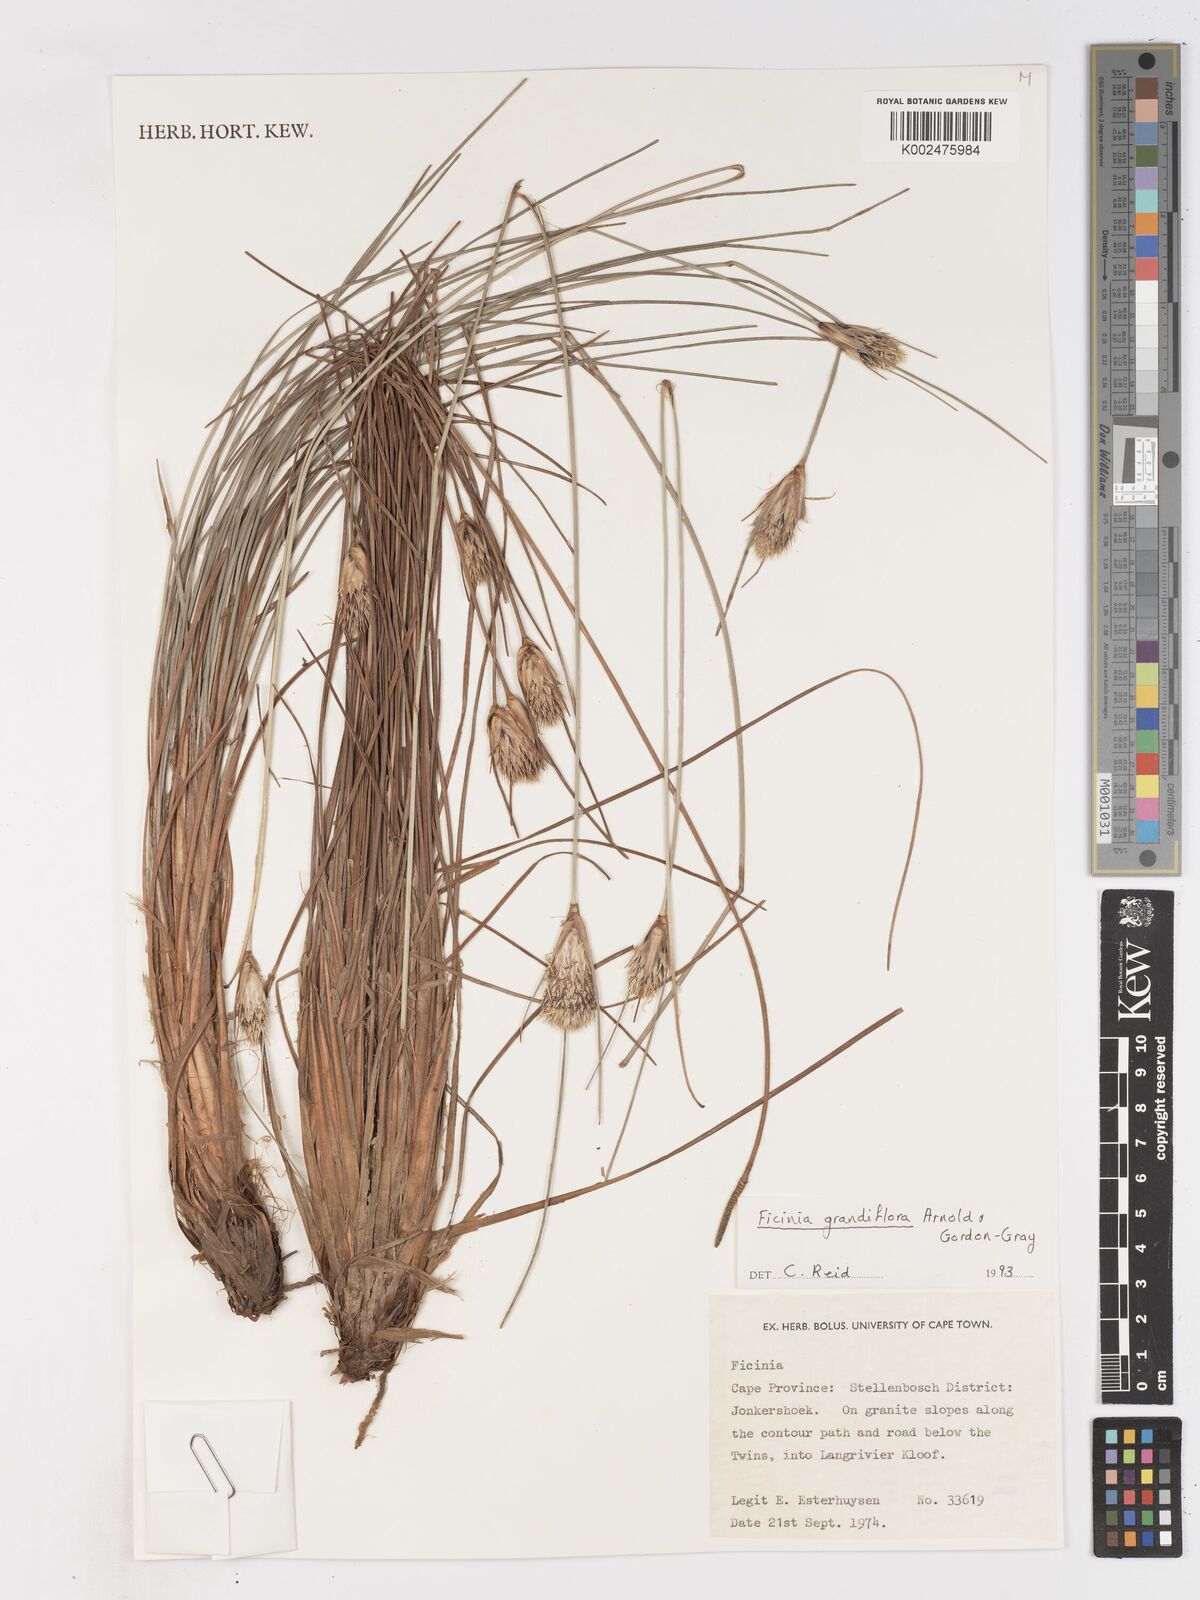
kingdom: Plantae
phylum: Tracheophyta
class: Liliopsida
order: Poales
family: Cyperaceae
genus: Ficinia
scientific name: Ficinia grandiflora
